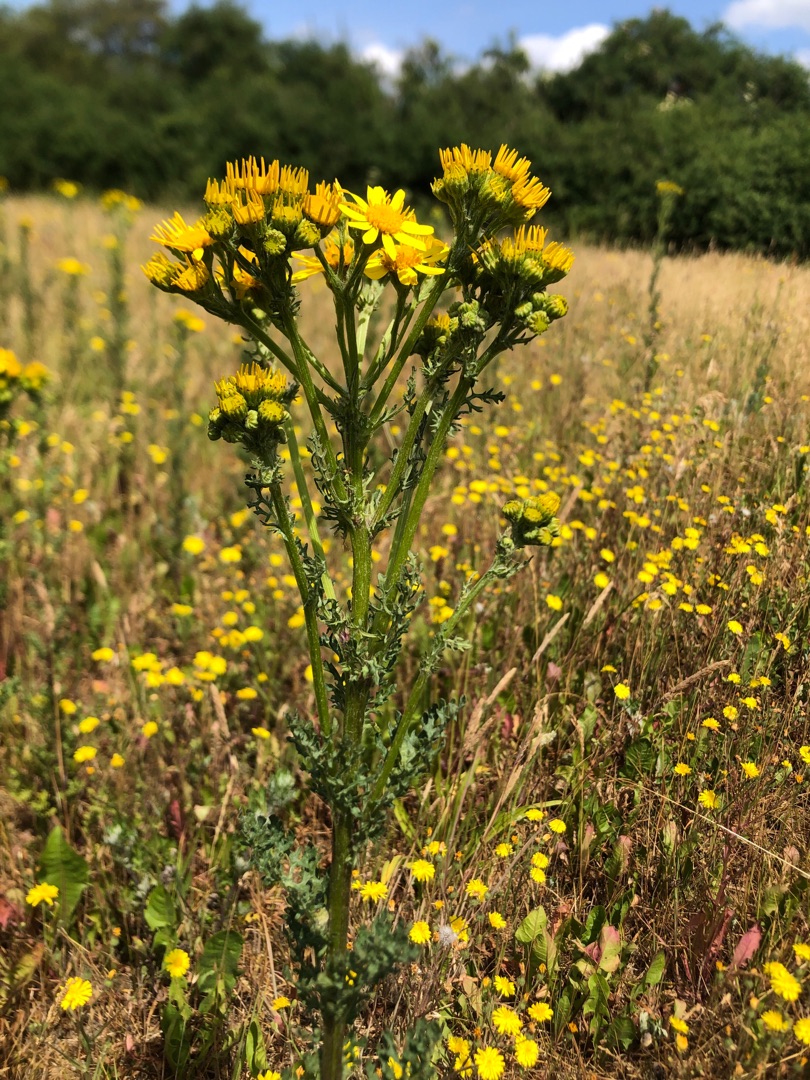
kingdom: Plantae
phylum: Tracheophyta
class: Magnoliopsida
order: Asterales
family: Asteraceae
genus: Jacobaea
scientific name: Jacobaea vulgaris
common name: Eng-brandbæger
